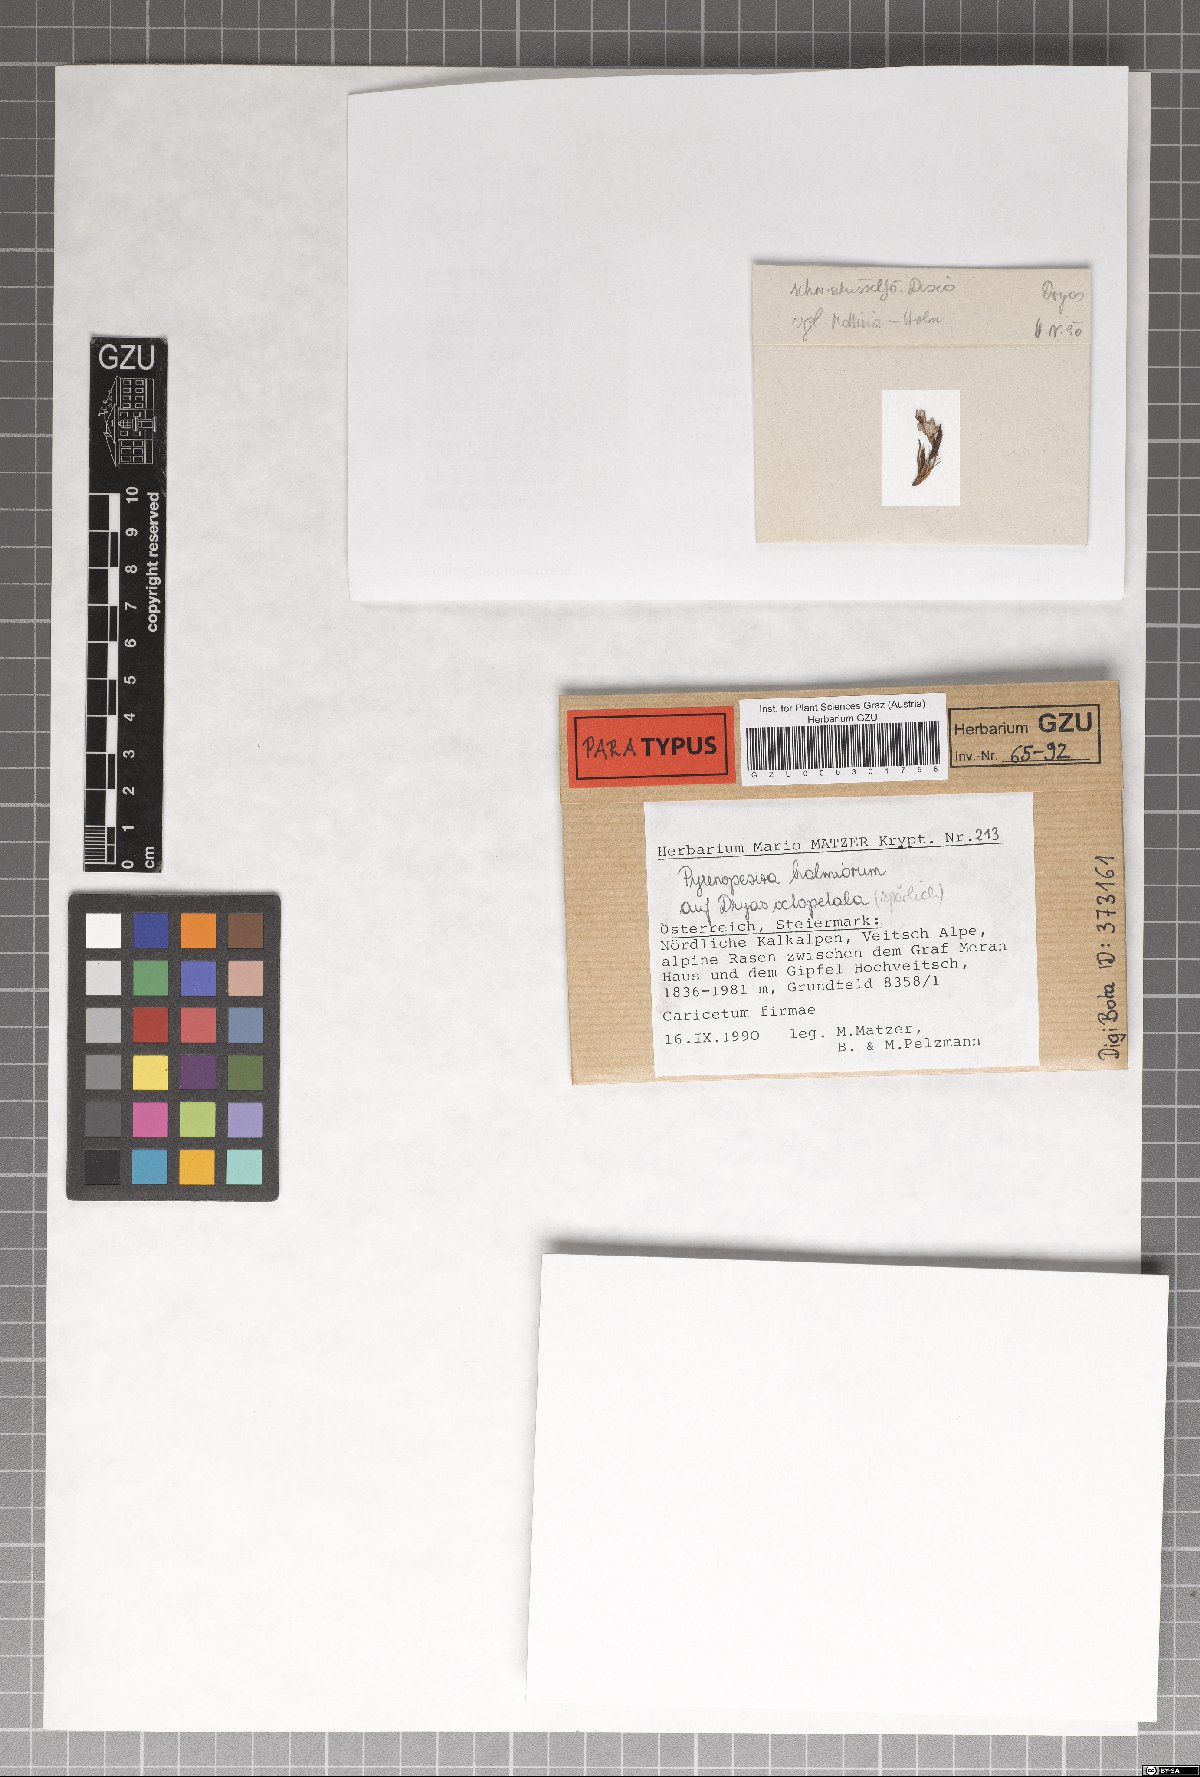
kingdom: Fungi
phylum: Ascomycota
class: Leotiomycetes
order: Helotiales
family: Ploettnerulaceae
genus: Pyrenopeziza
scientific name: Pyrenopeziza holmiorum
